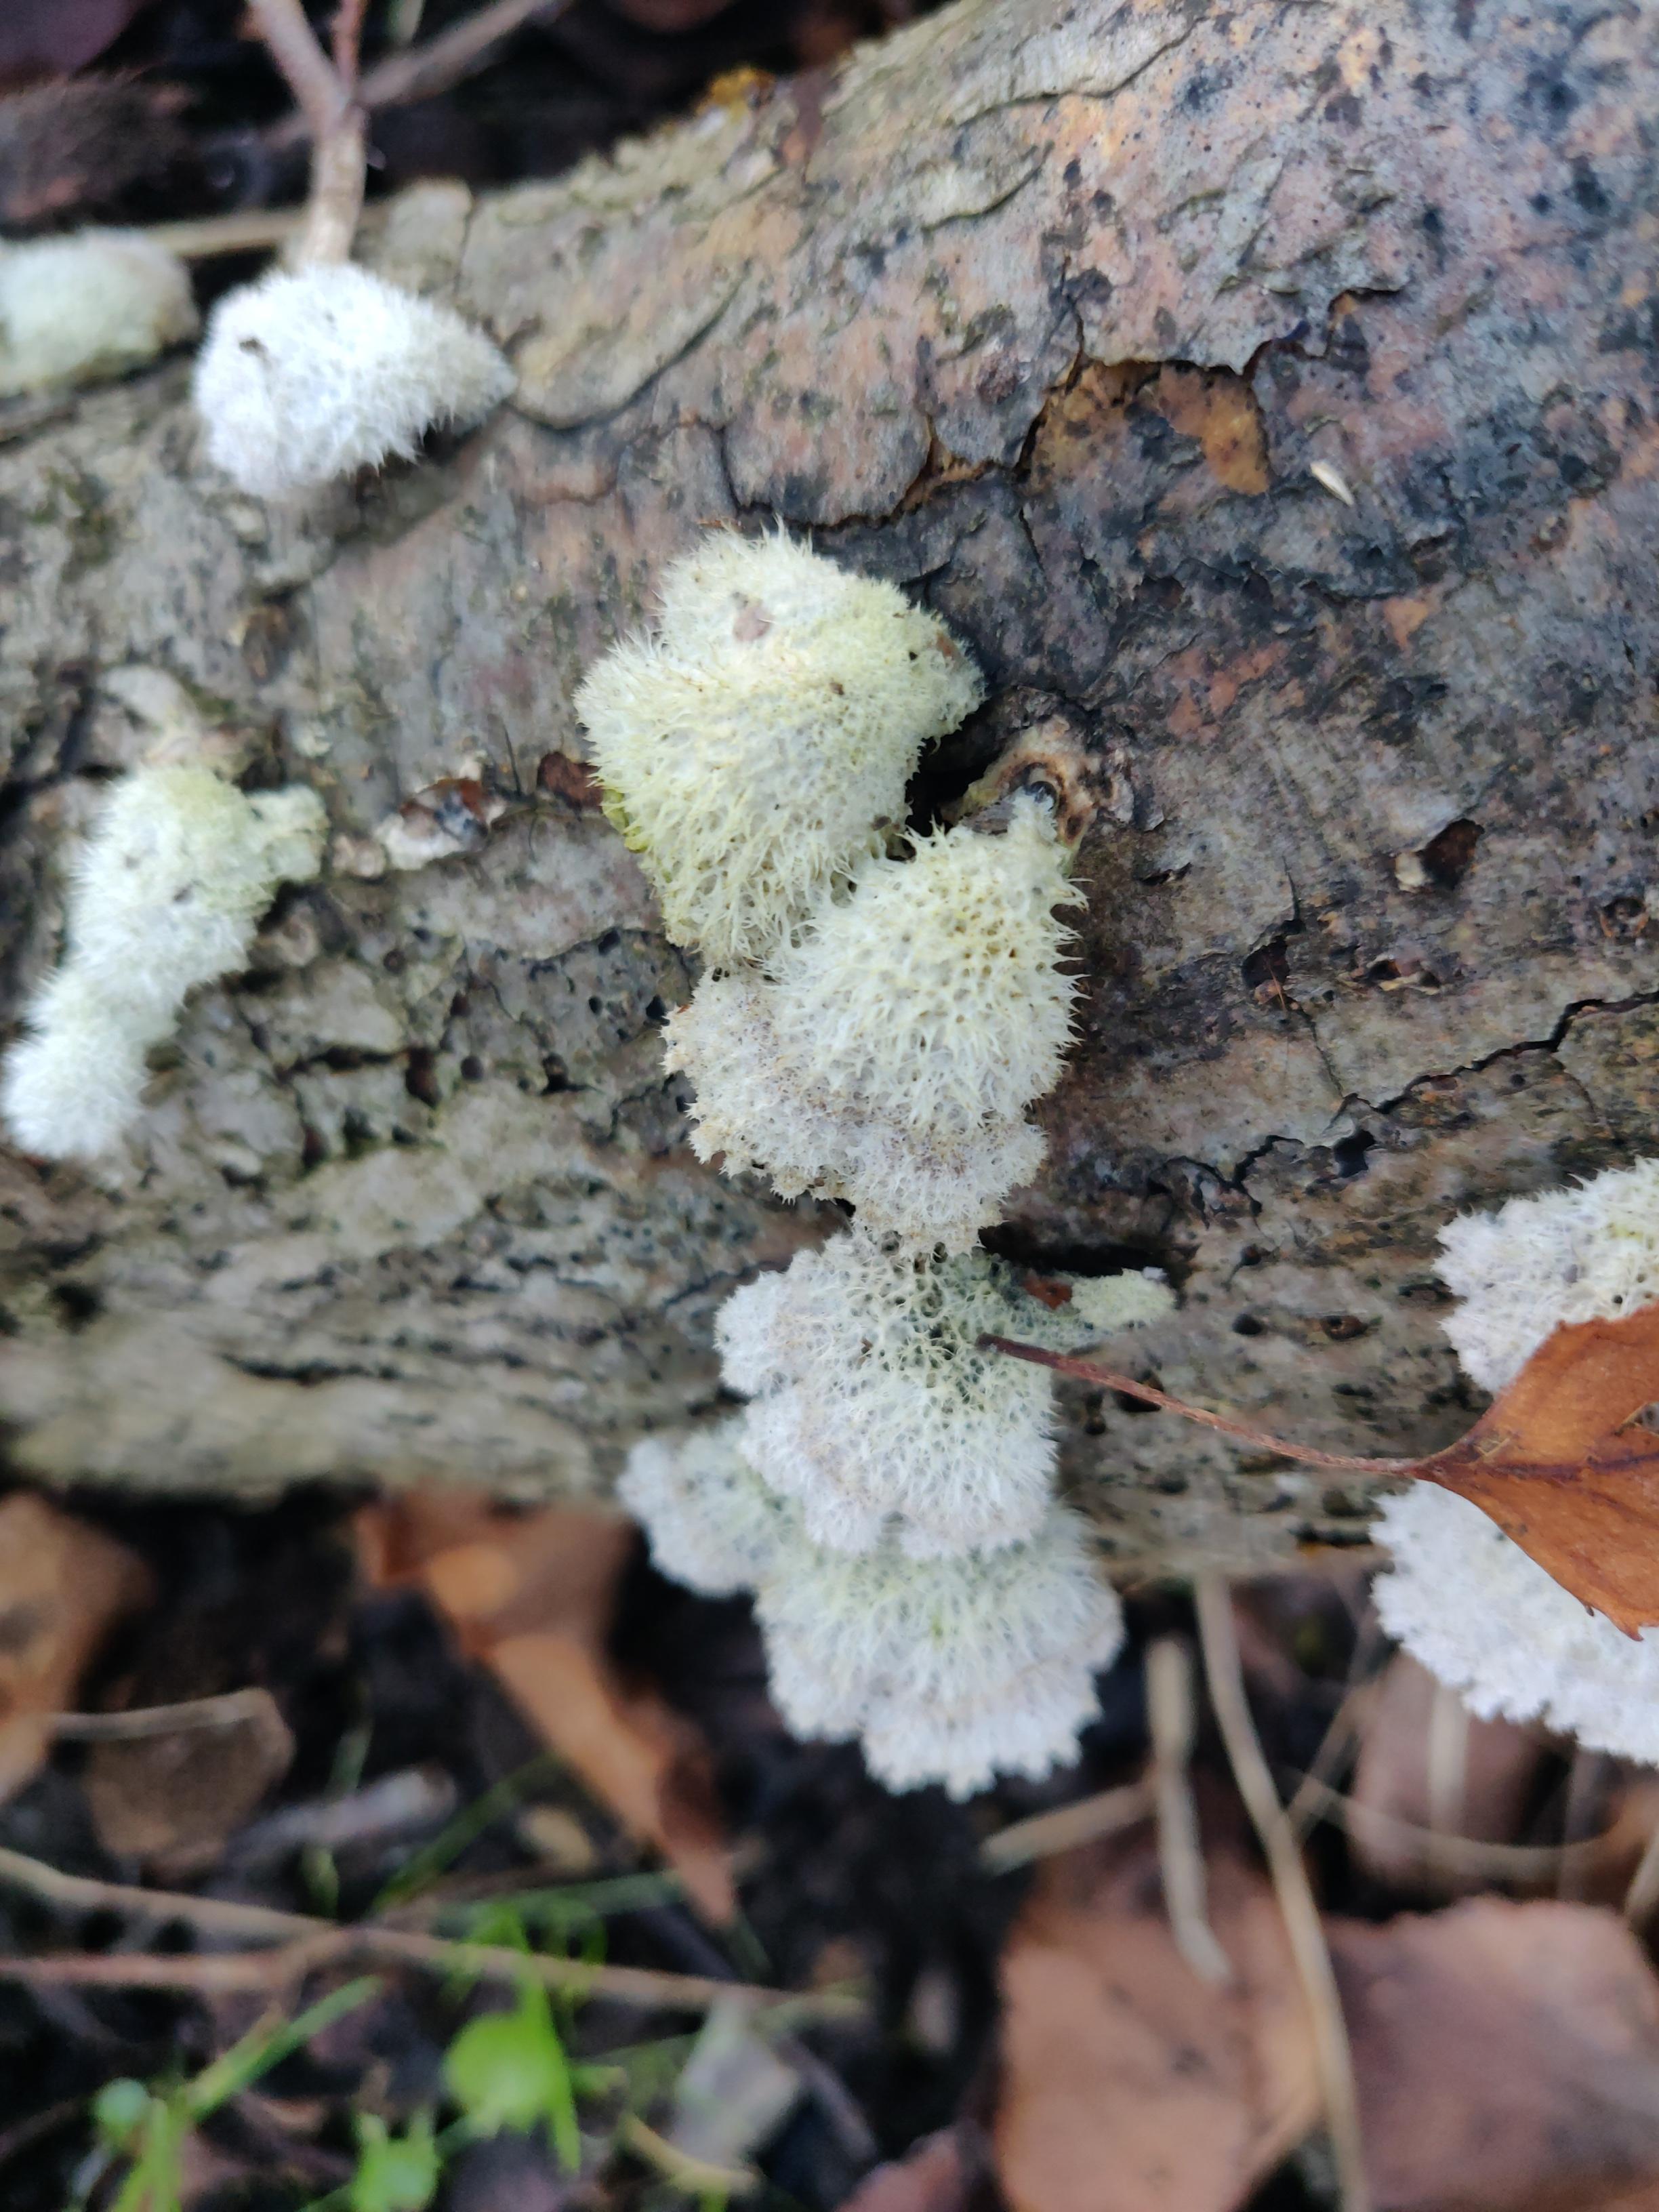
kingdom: Fungi
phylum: Basidiomycota
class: Agaricomycetes
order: Agaricales
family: Schizophyllaceae
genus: Schizophyllum
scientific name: Schizophyllum commune
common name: kløvblad
